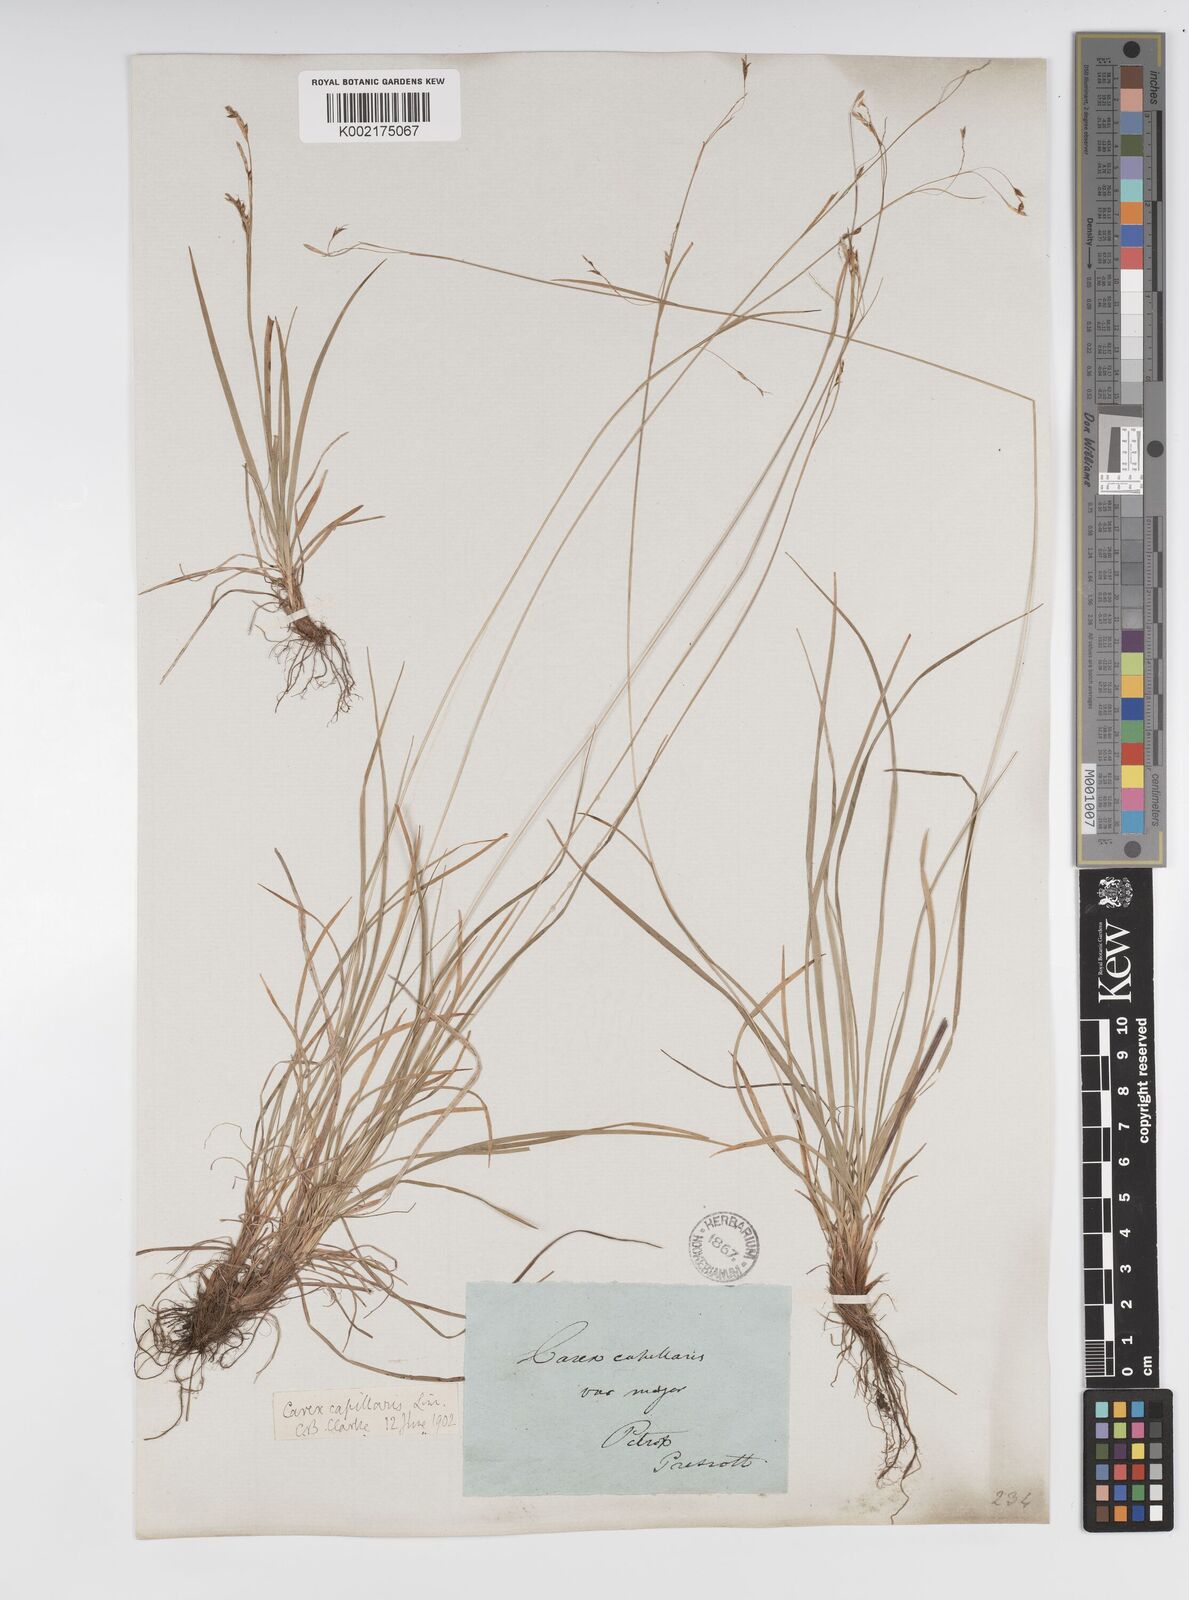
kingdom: Plantae
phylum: Tracheophyta
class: Liliopsida
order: Poales
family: Cyperaceae
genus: Carex
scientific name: Carex capillaris
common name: Hair sedge
